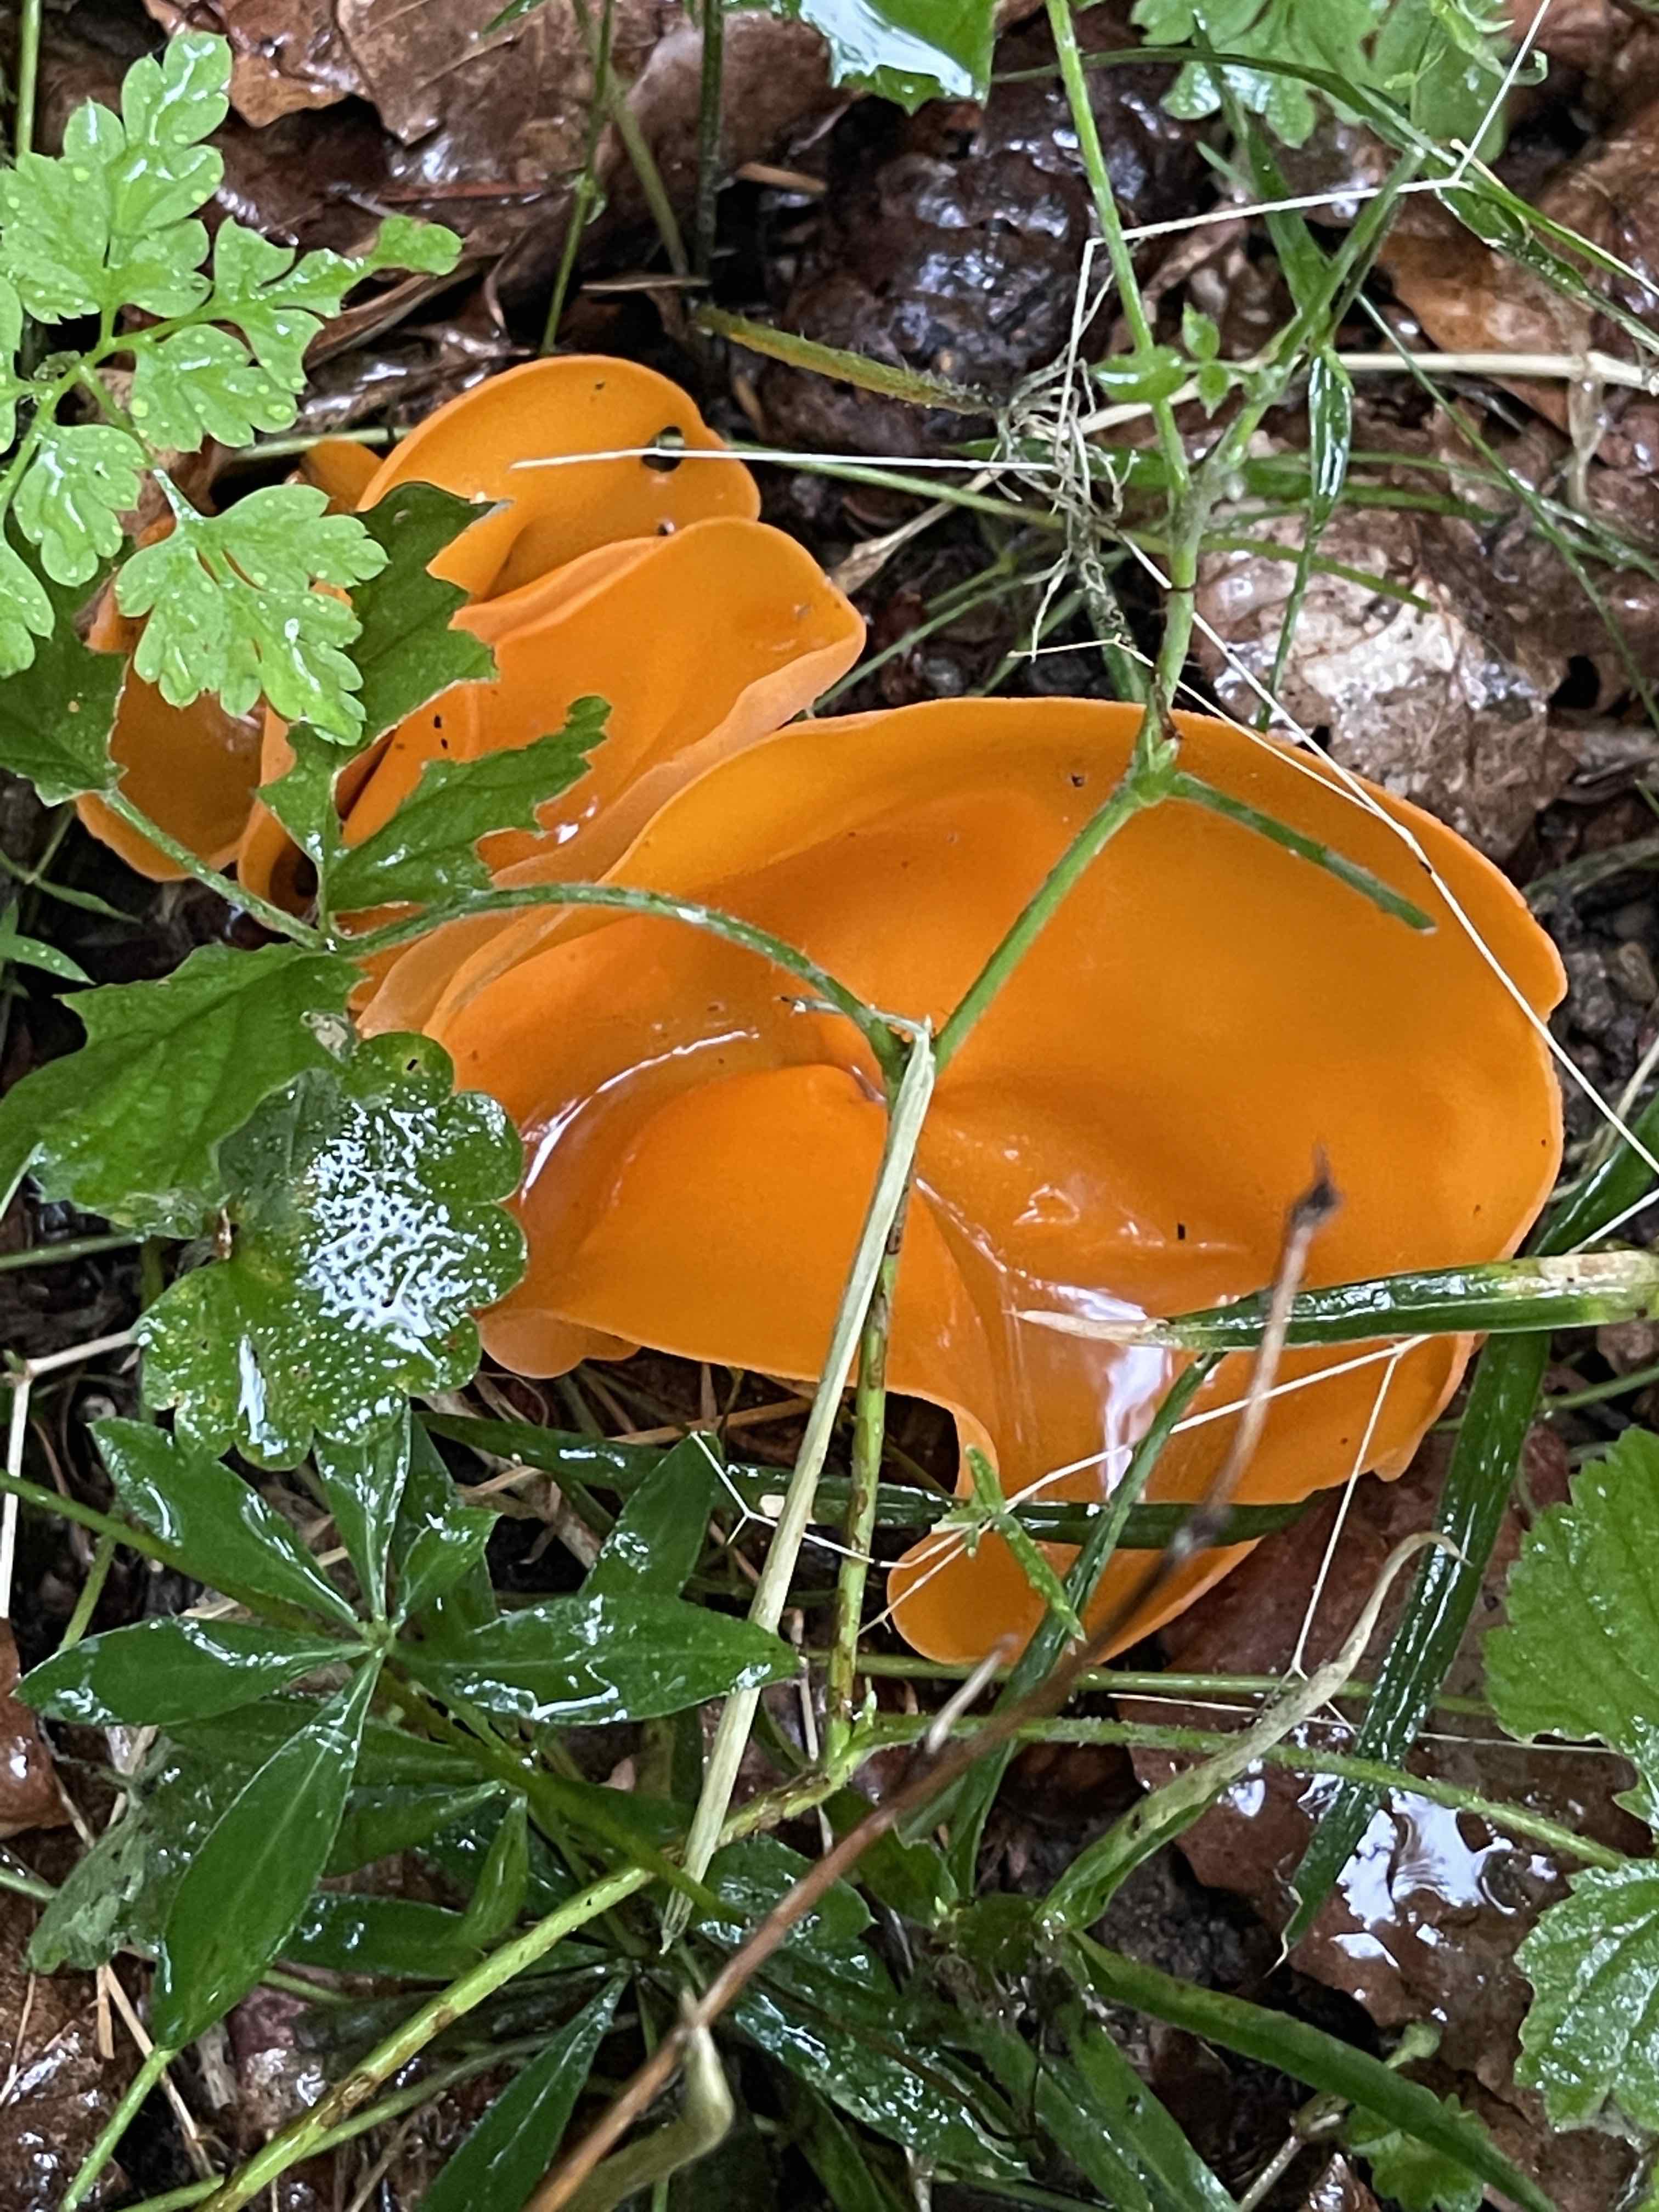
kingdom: Fungi
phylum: Ascomycota
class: Pezizomycetes
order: Pezizales
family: Pyronemataceae
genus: Aleuria
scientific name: Aleuria aurantia
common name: almindelig orangebæger
